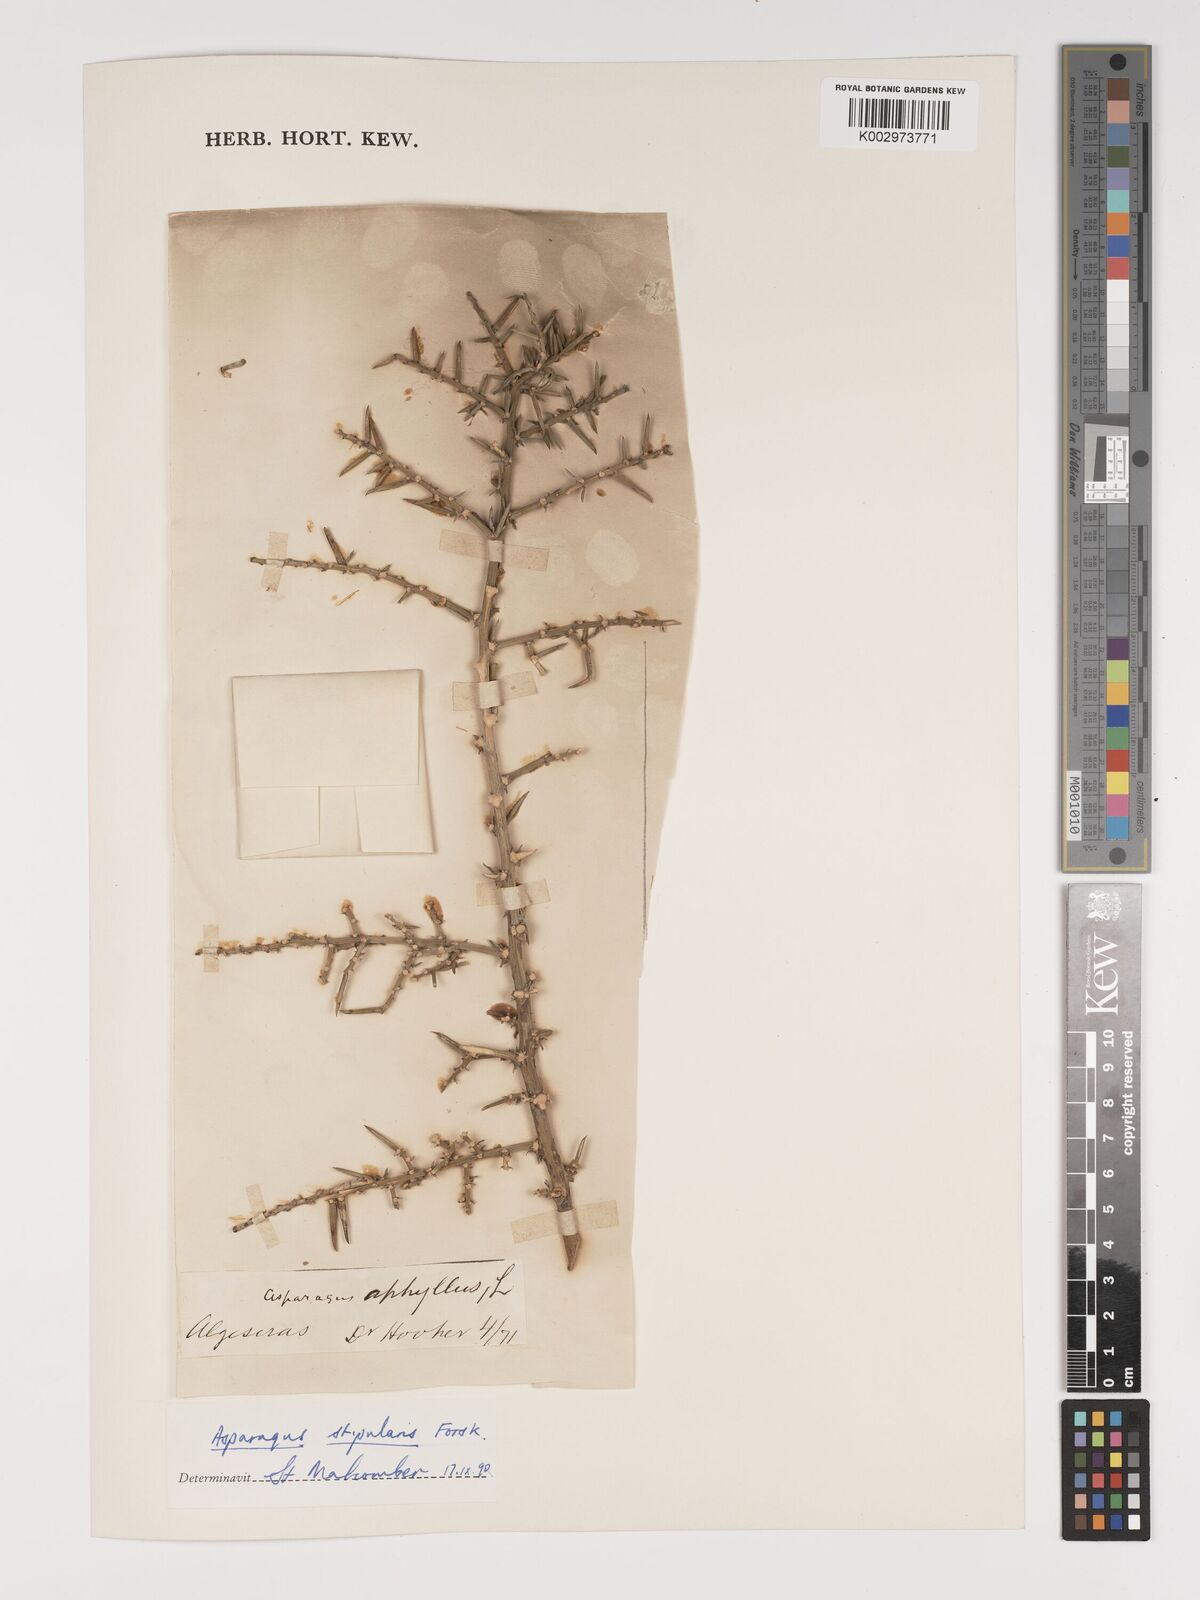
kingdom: Plantae
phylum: Tracheophyta
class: Liliopsida
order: Asparagales
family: Asparagaceae
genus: Asparagus
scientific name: Asparagus horridus
